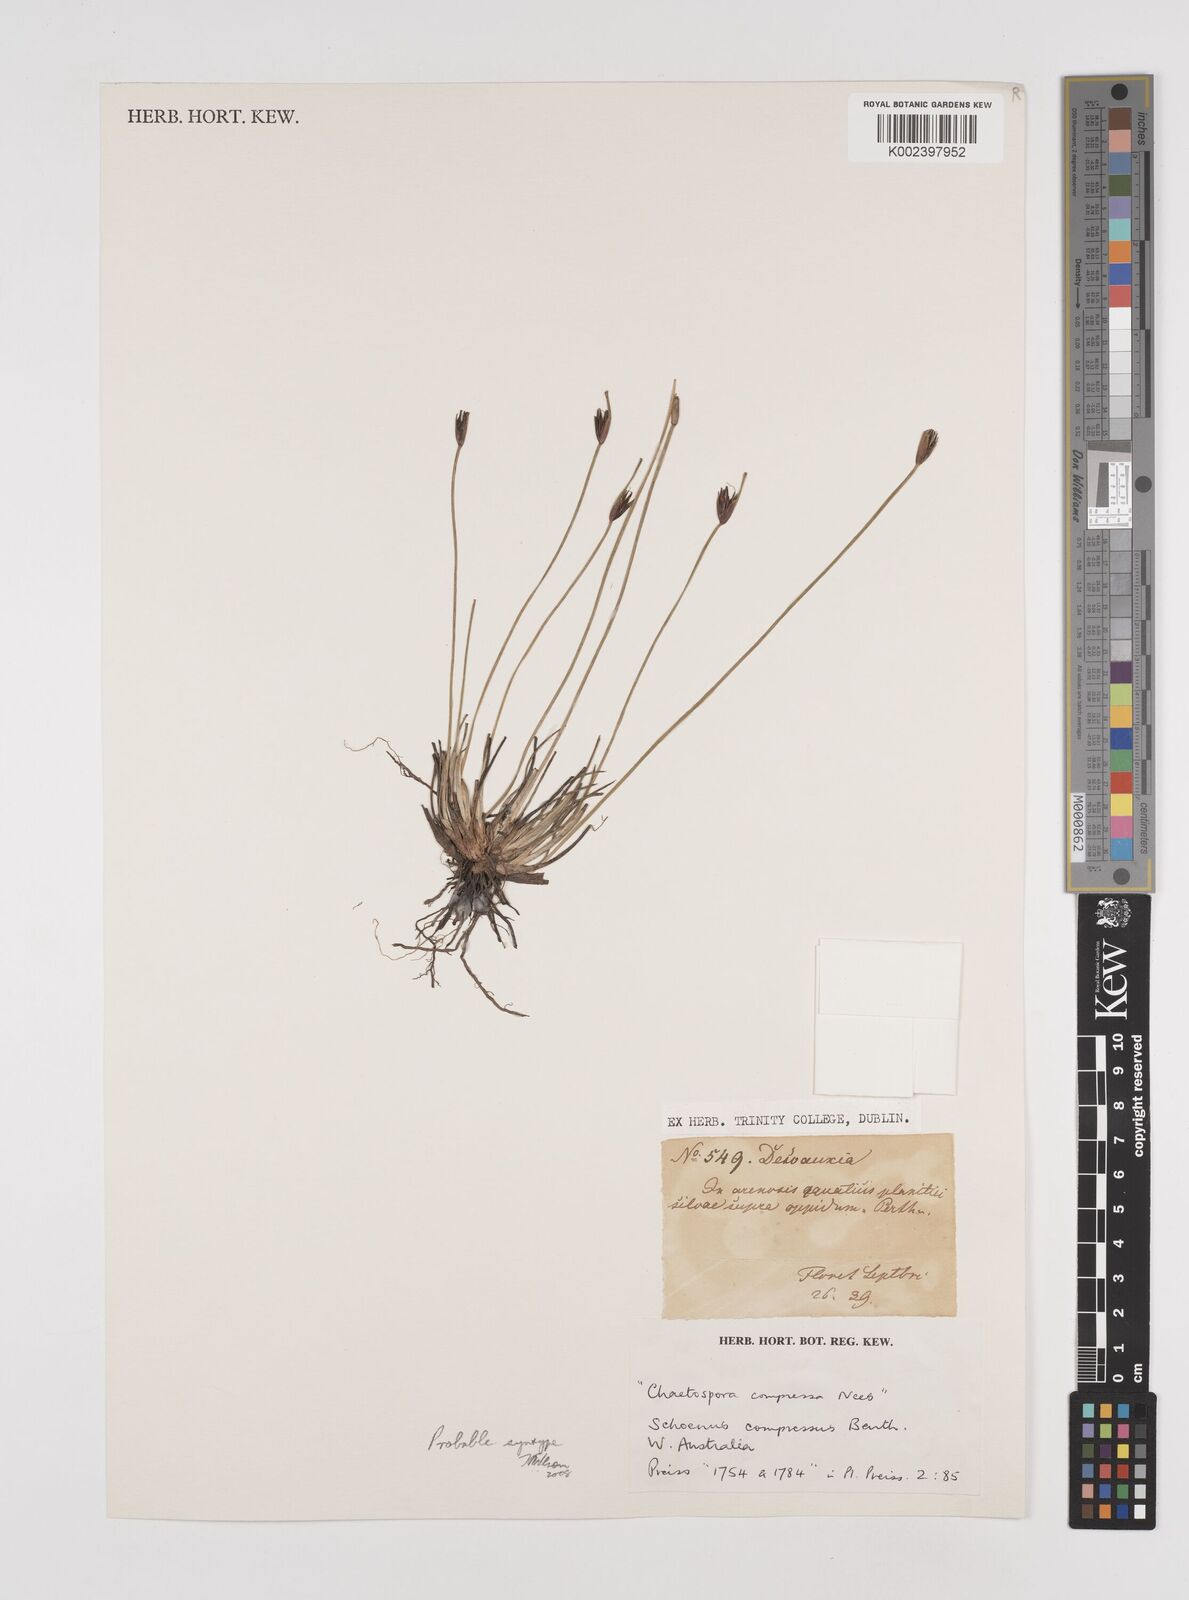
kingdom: Plantae
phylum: Tracheophyta
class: Liliopsida
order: Poales
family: Cyperaceae
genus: Schoenus
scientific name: Schoenus benthamii
